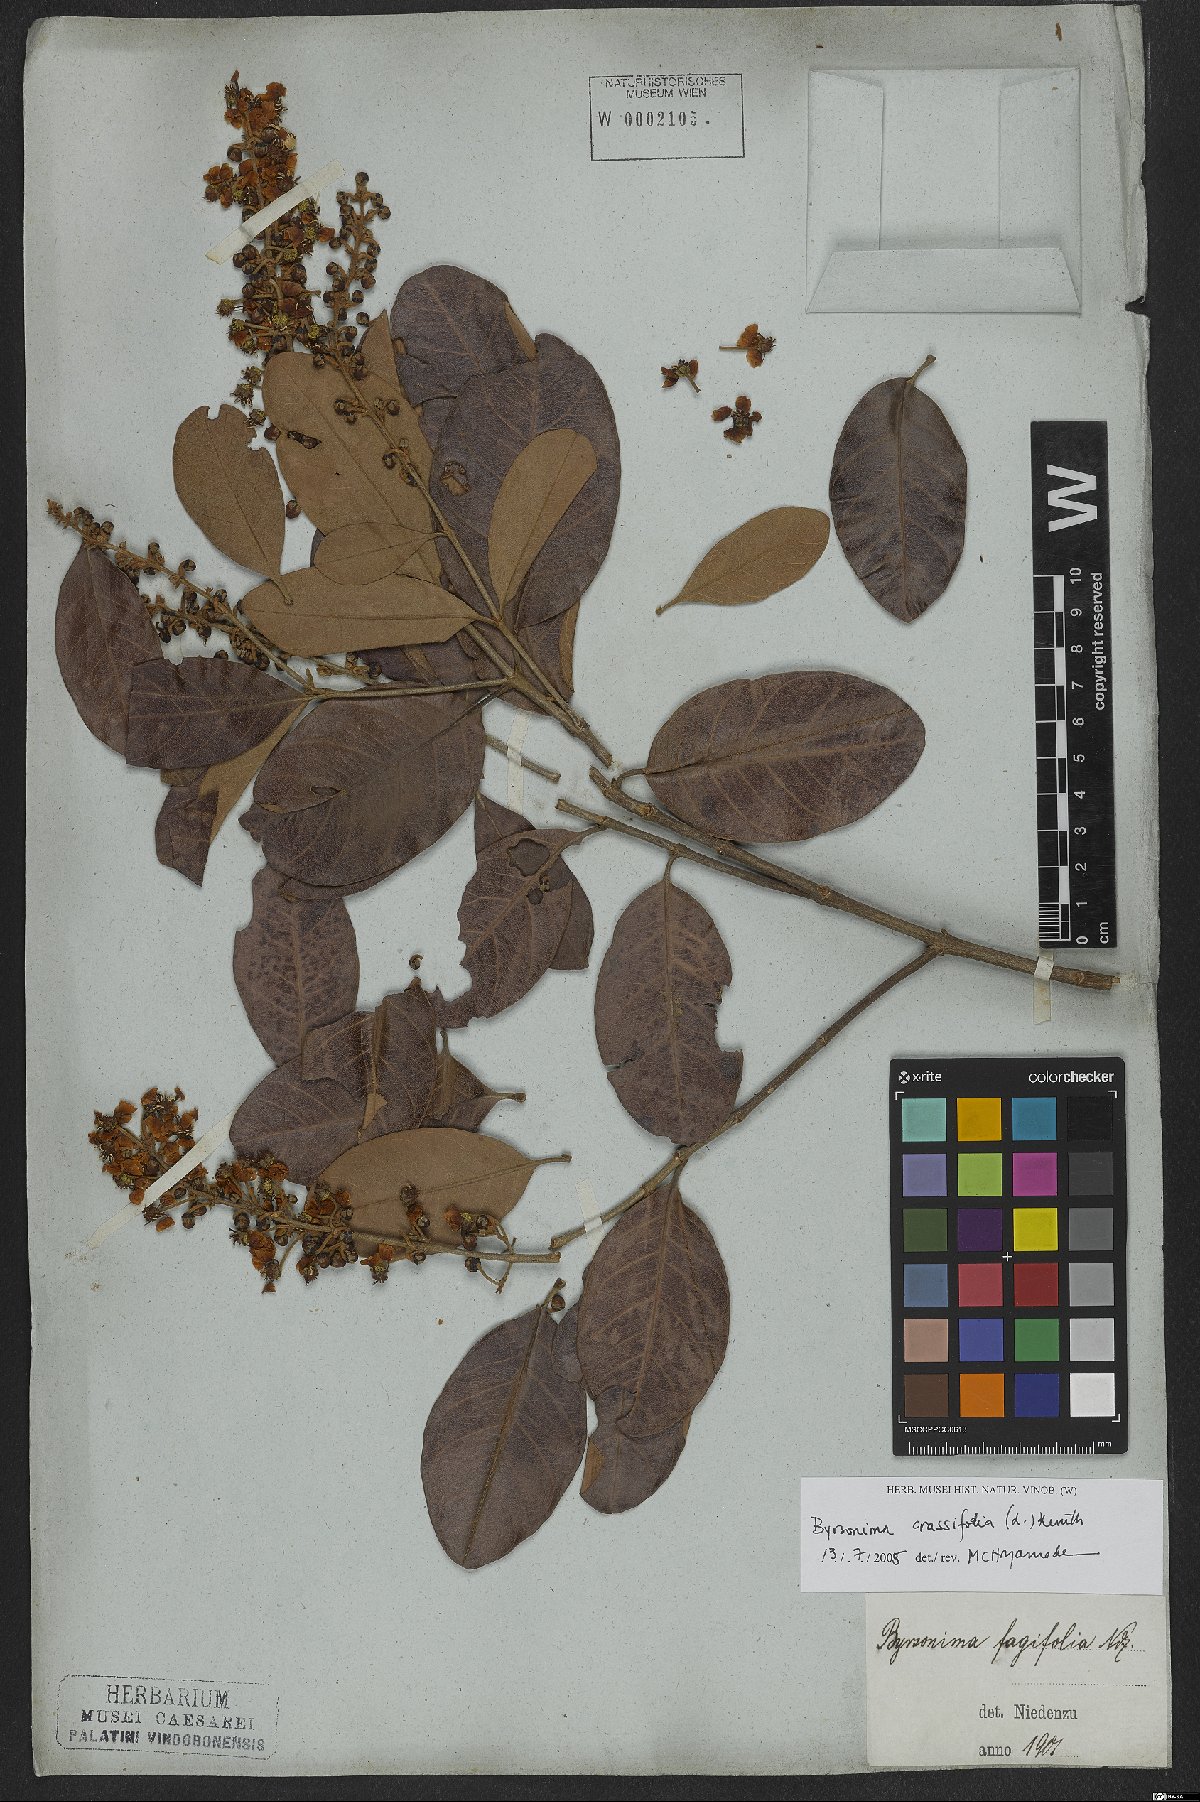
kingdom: Plantae
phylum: Tracheophyta
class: Magnoliopsida
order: Malpighiales
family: Malpighiaceae
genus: Byrsonima
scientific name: Byrsonima crassifolia
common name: Golden spoon
